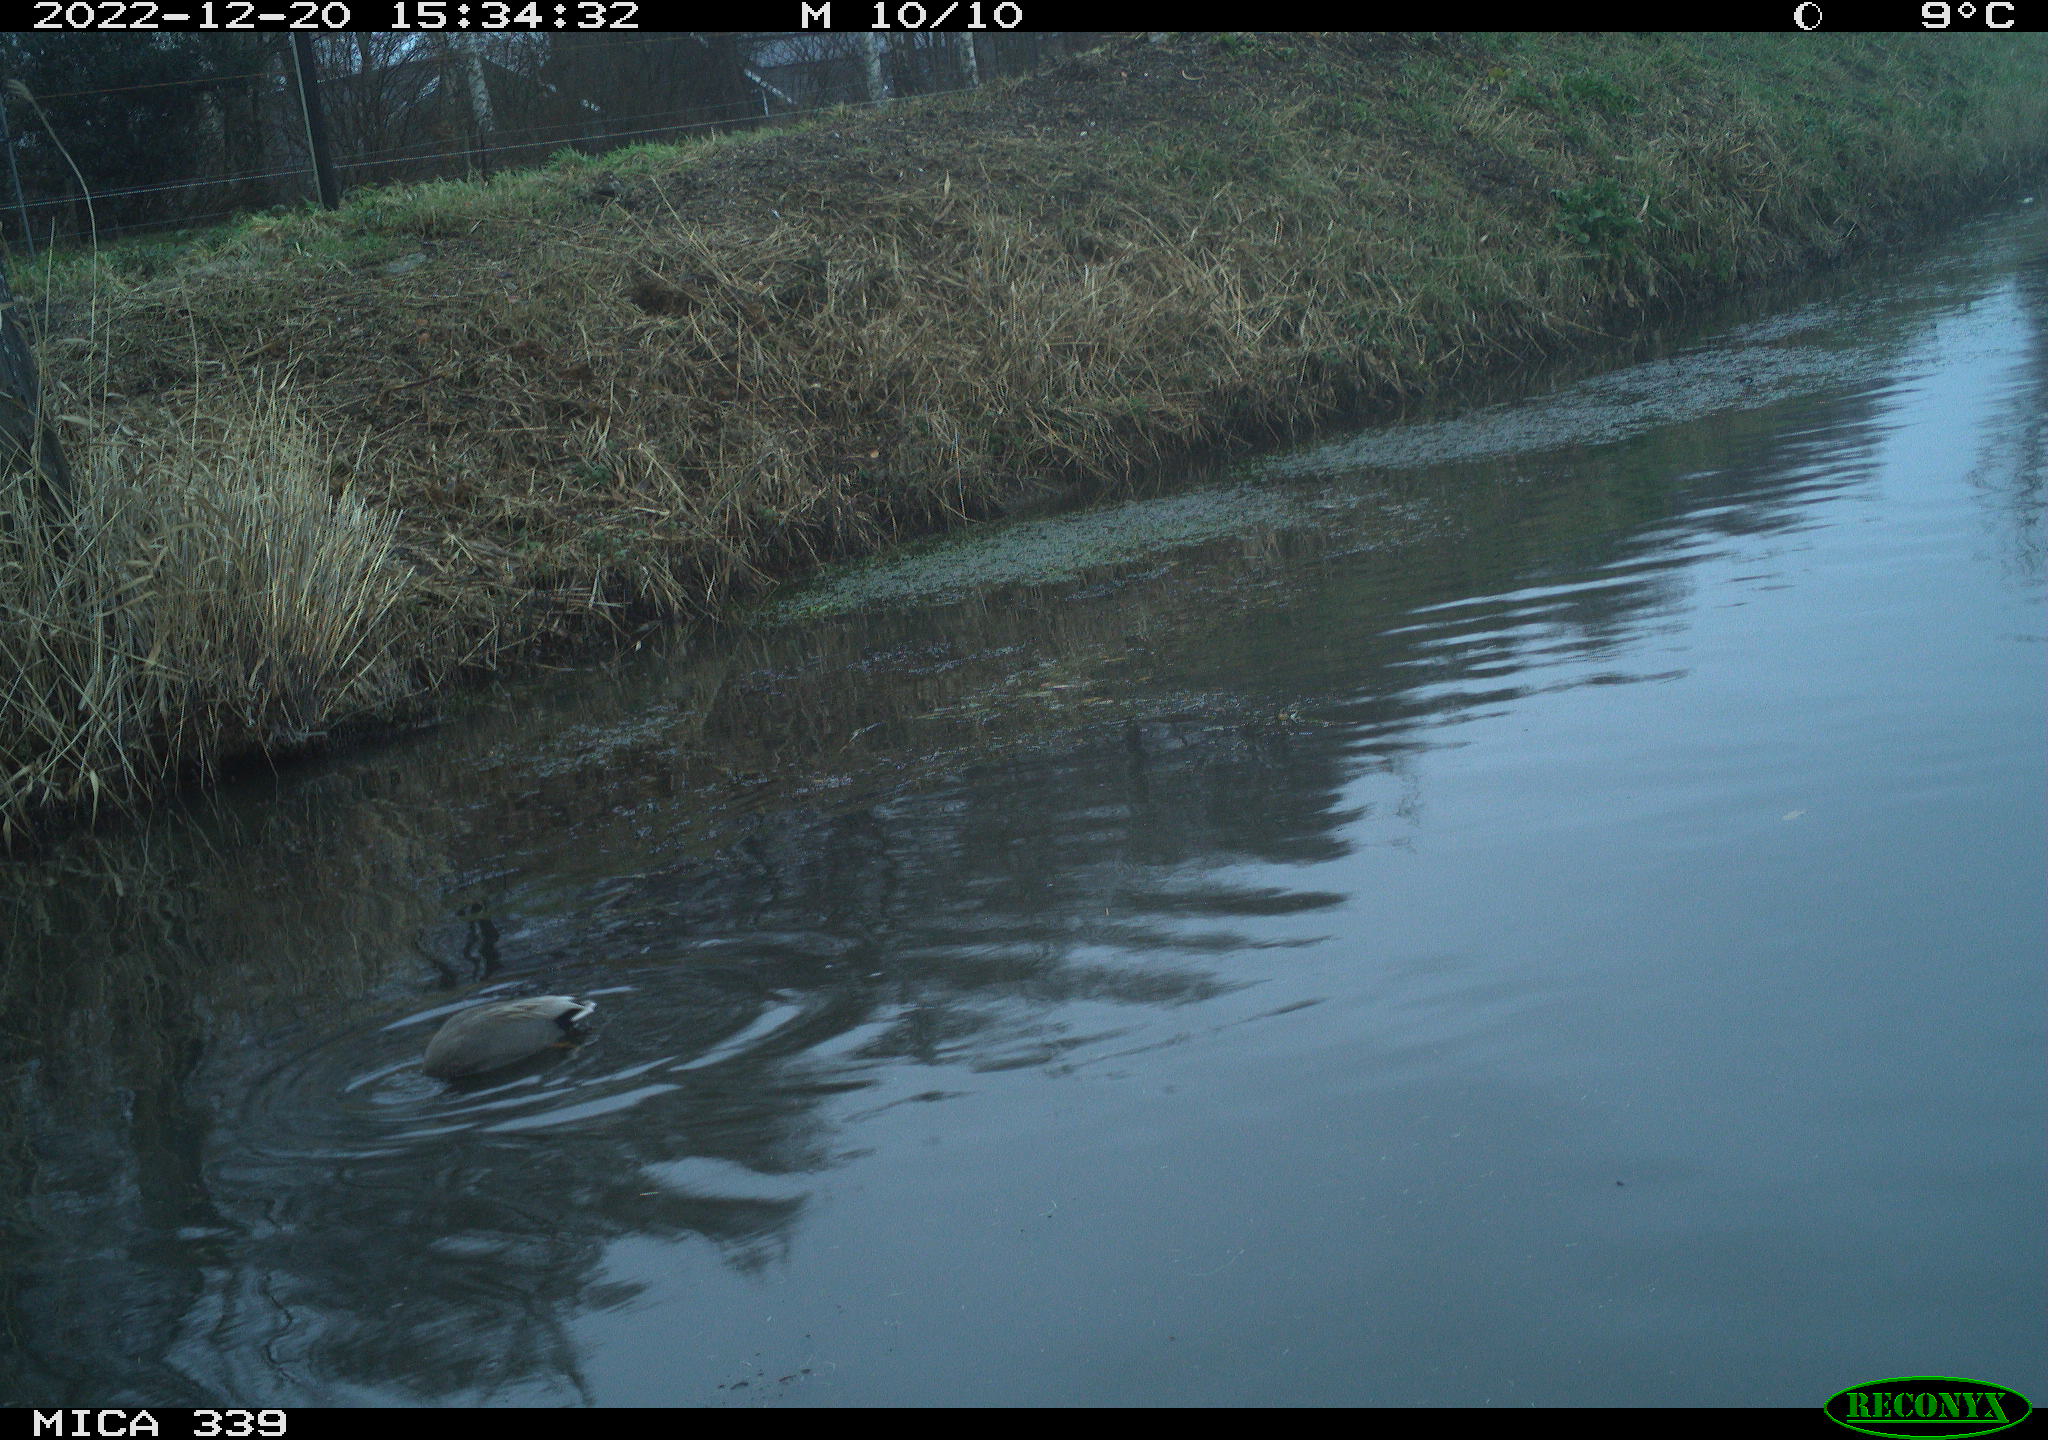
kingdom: Animalia
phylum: Chordata
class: Aves
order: Anseriformes
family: Anatidae
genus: Anas
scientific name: Anas
